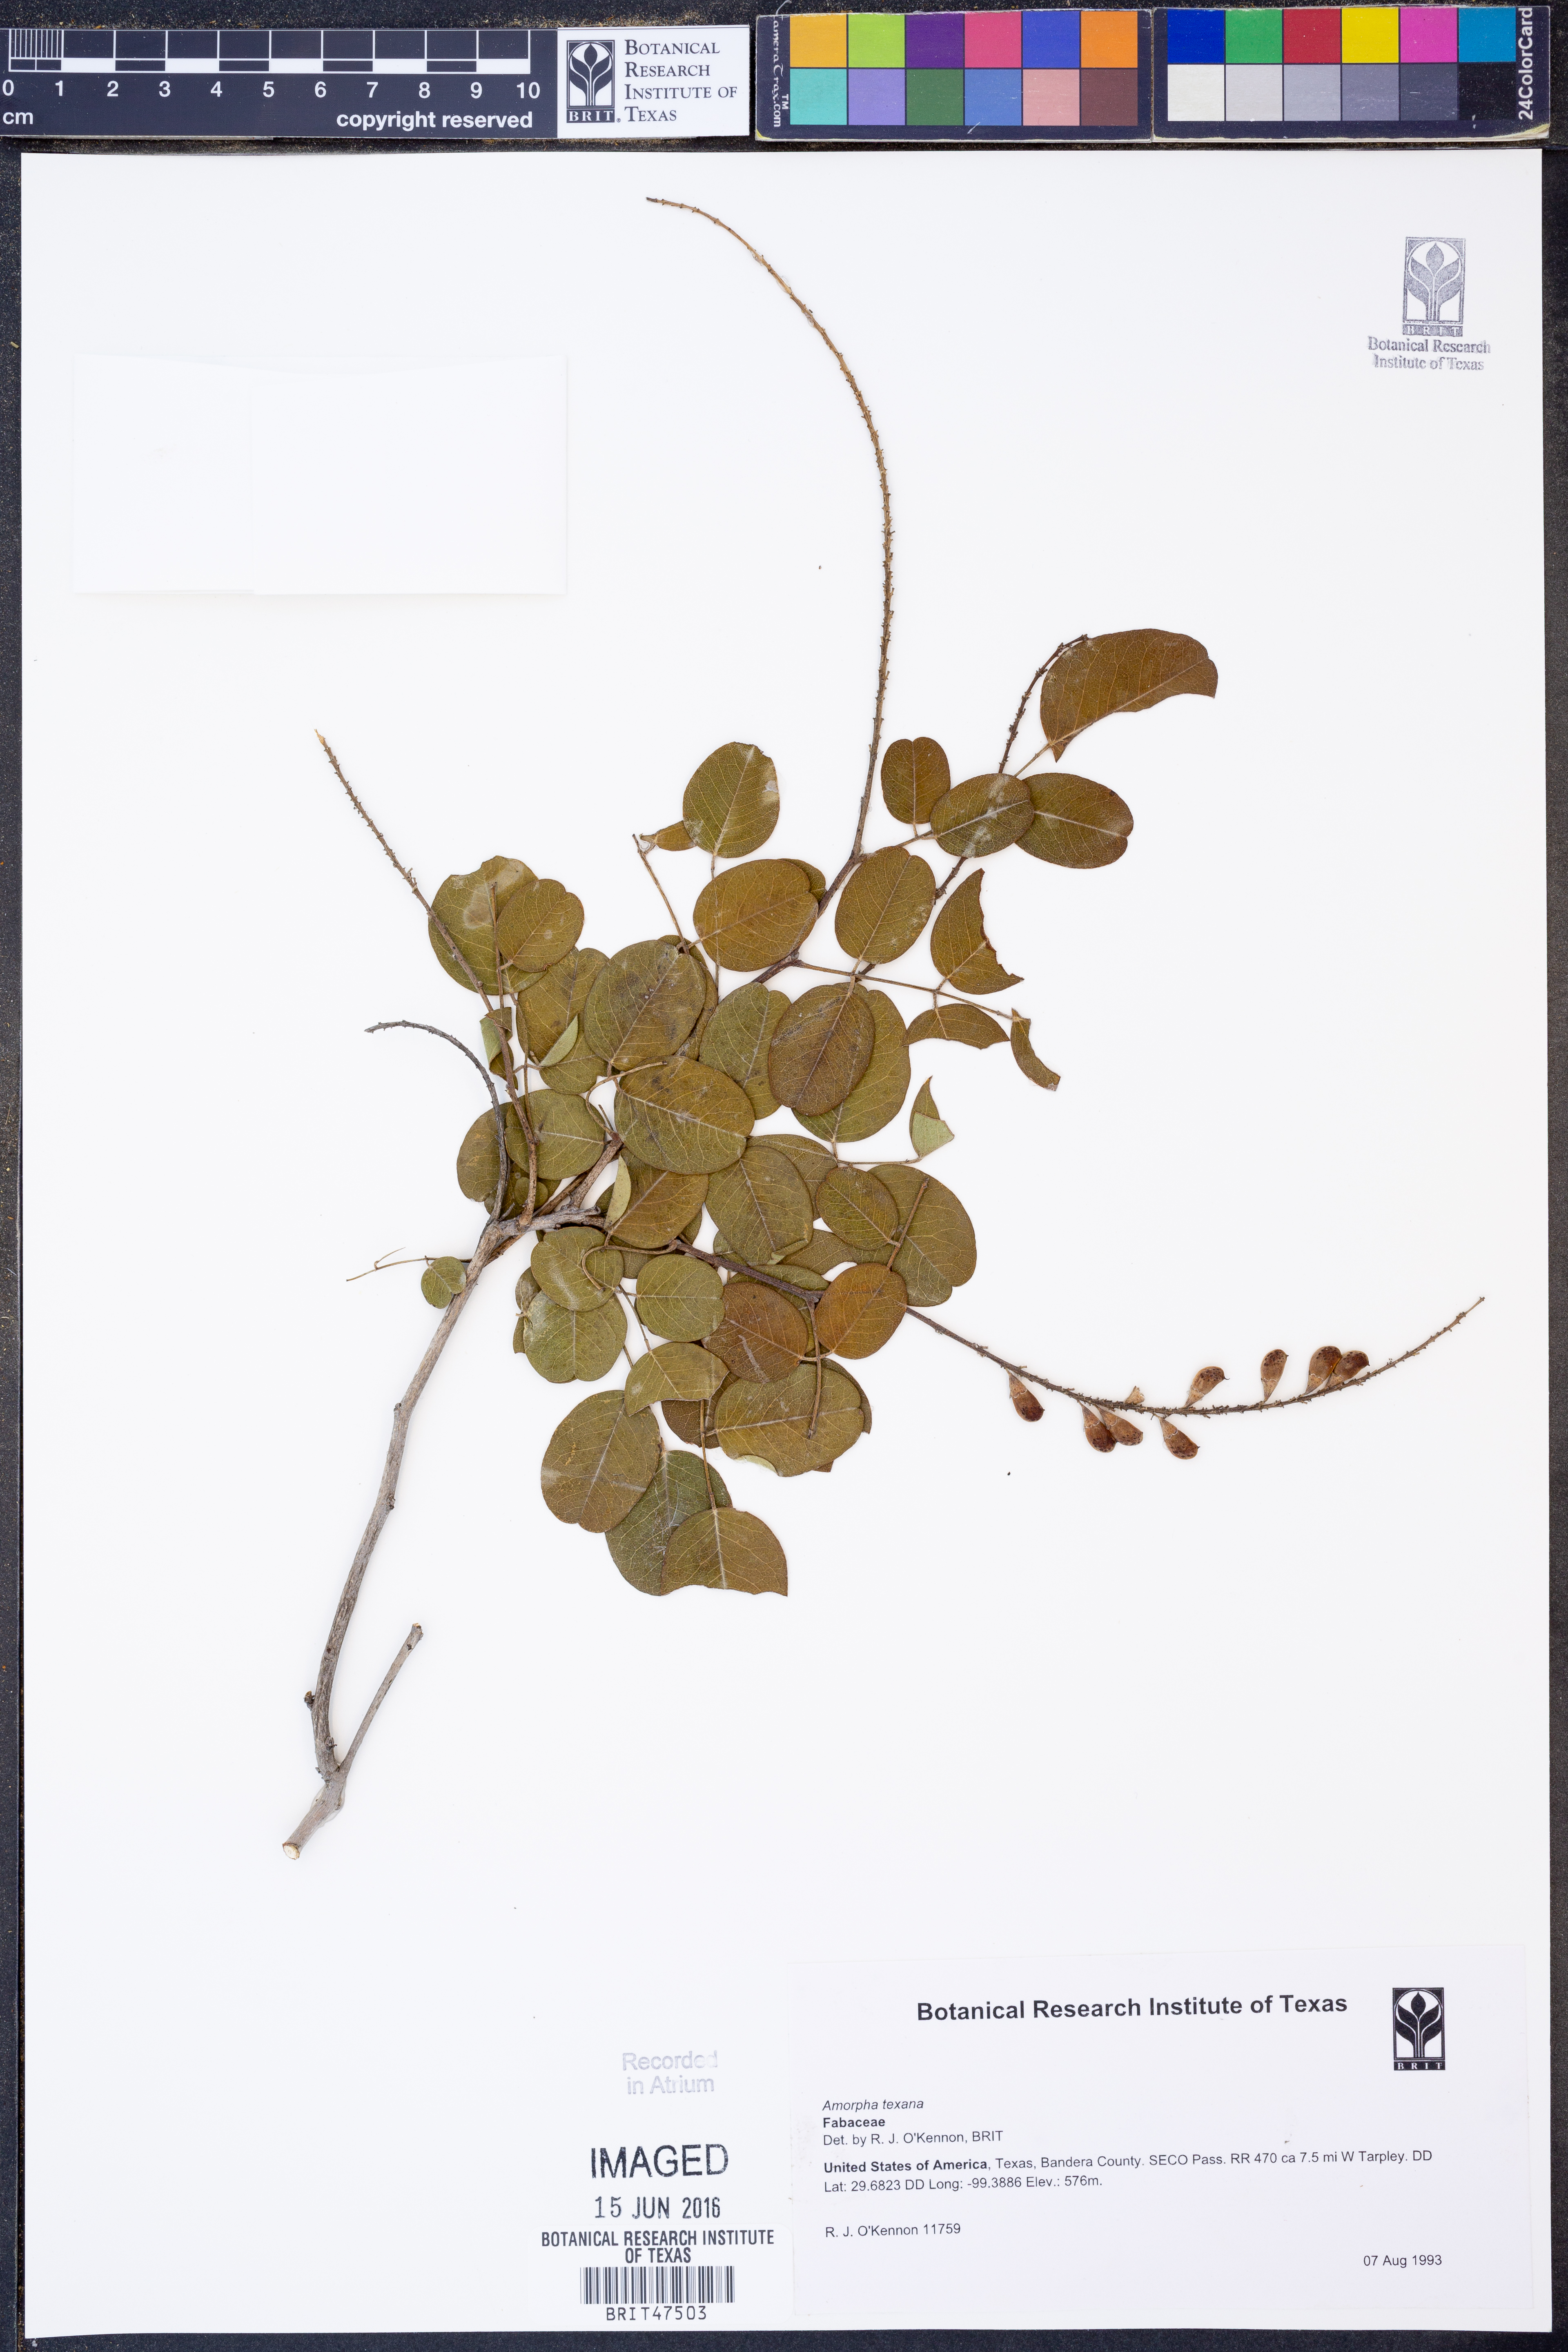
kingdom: Plantae
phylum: Tracheophyta
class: Magnoliopsida
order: Fabales
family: Fabaceae
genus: Amorpha
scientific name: Amorpha roemeriana
